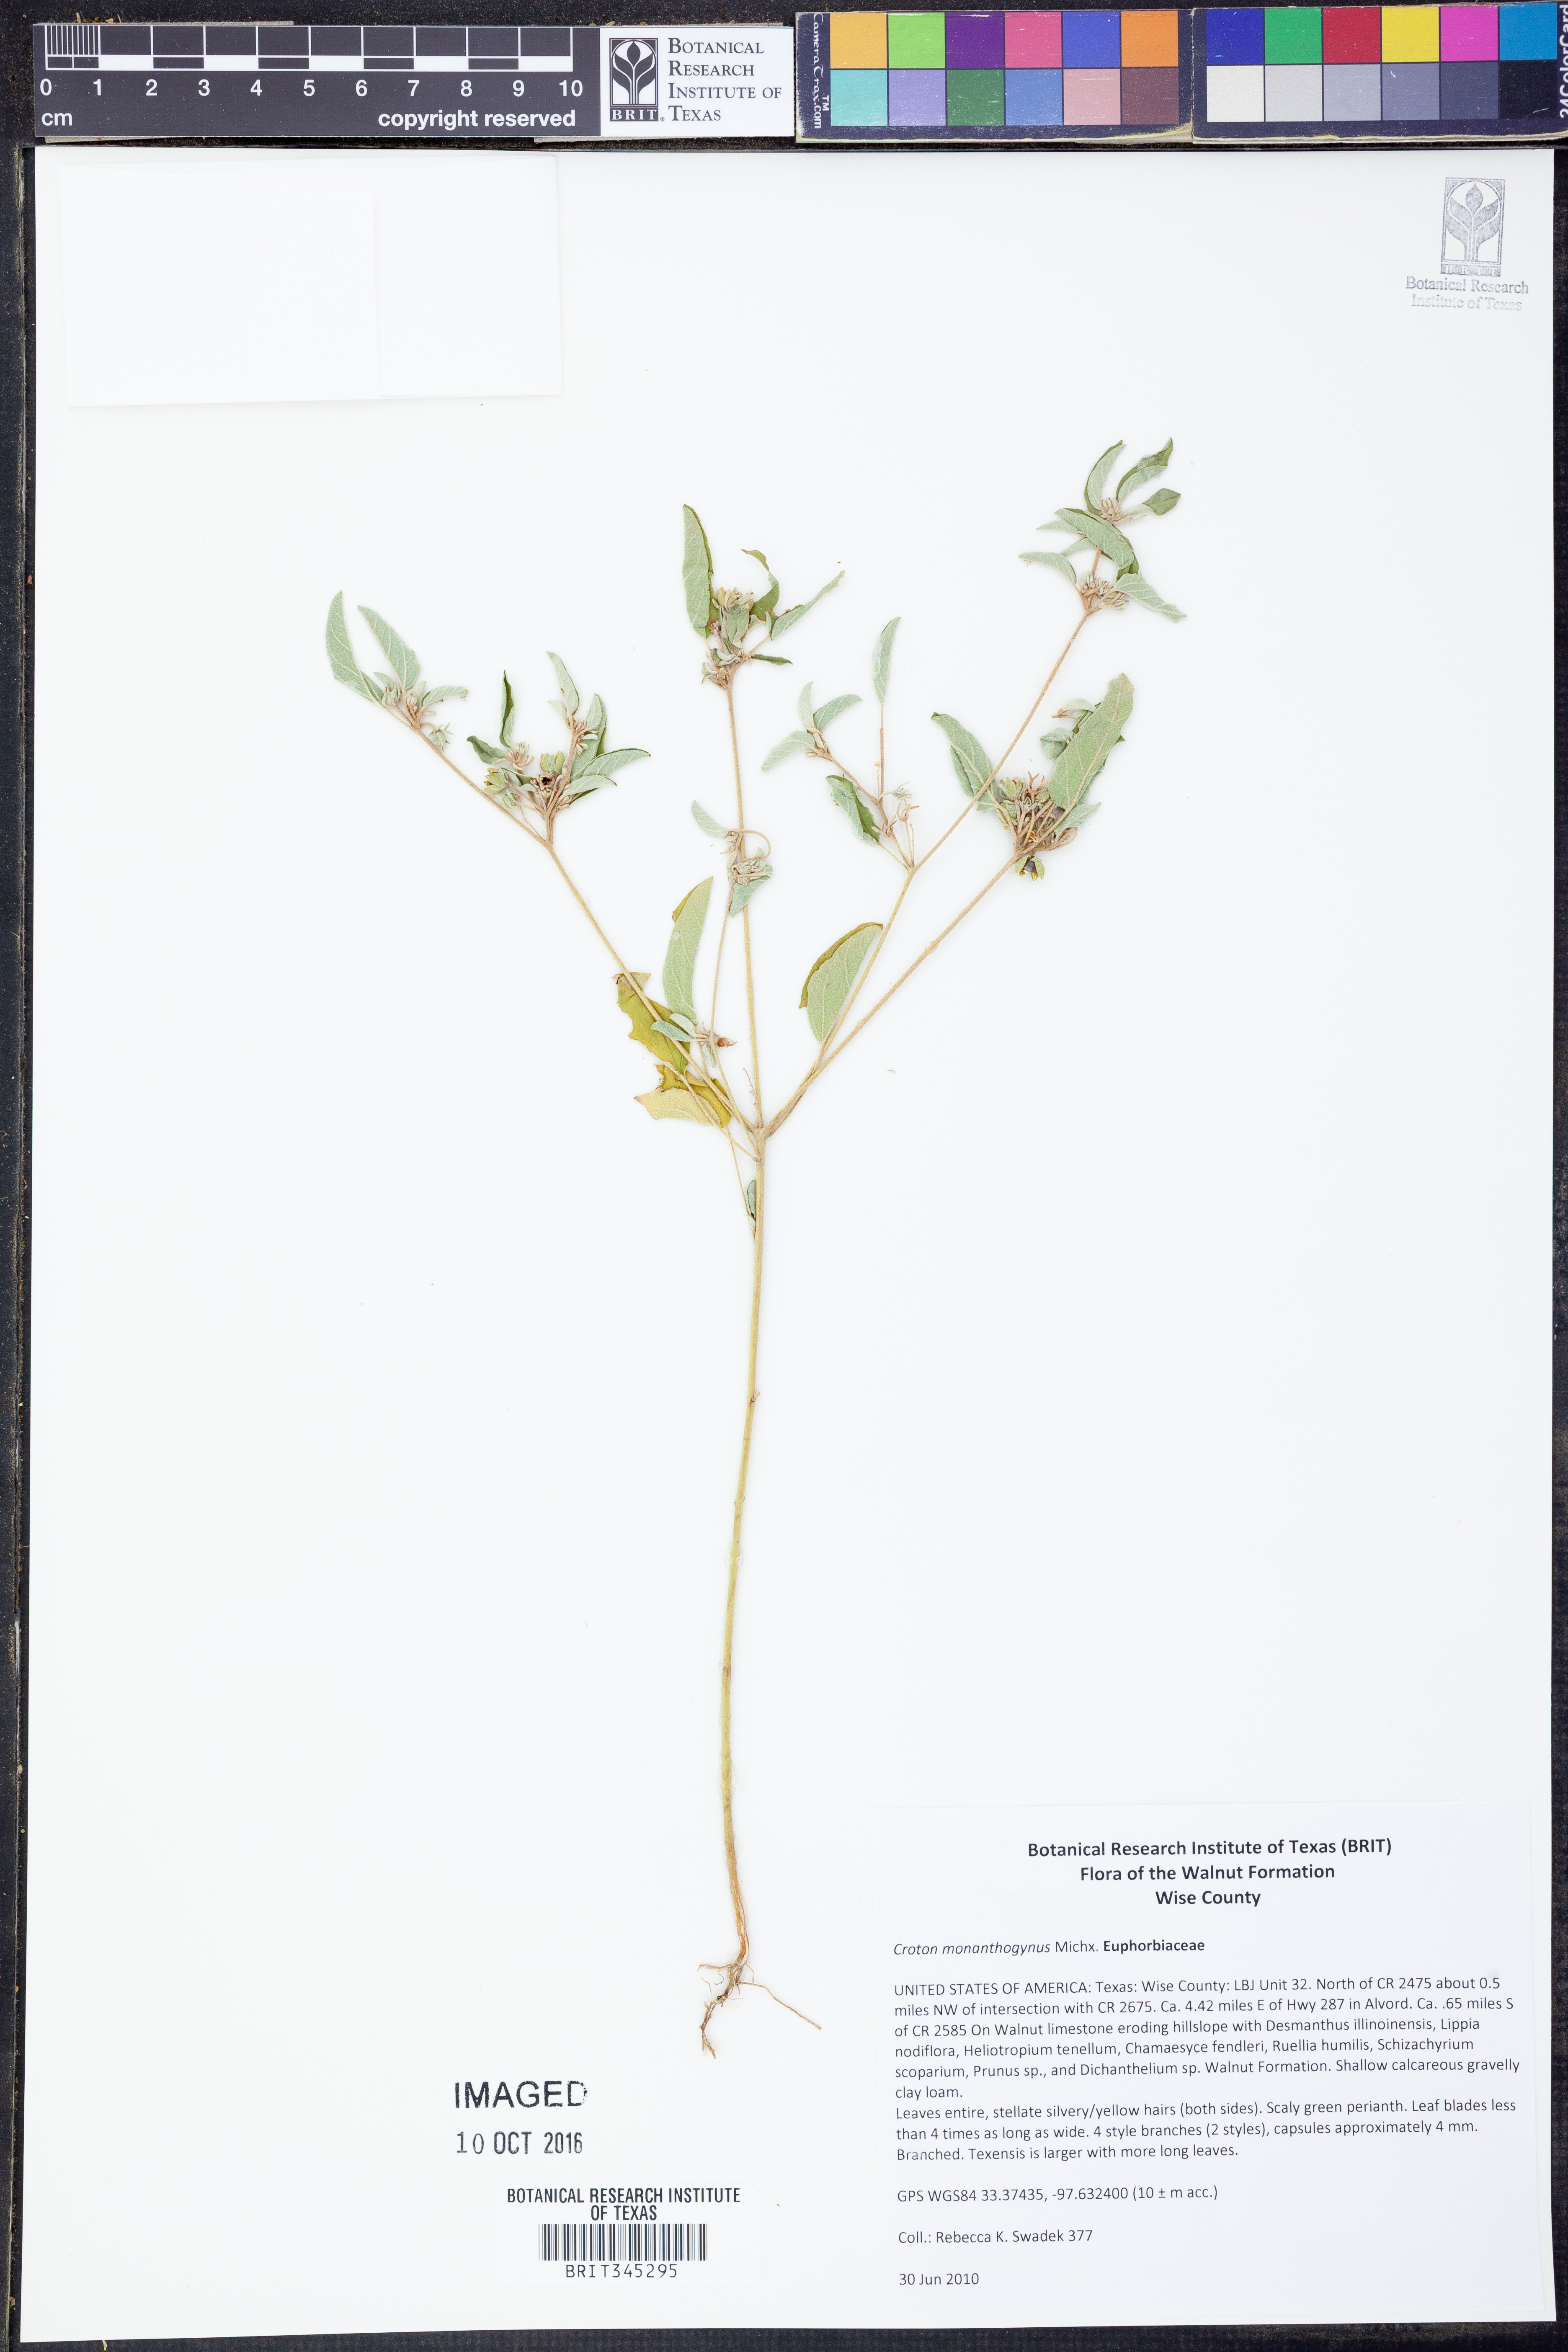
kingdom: Plantae
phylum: Tracheophyta
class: Magnoliopsida
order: Malpighiales
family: Euphorbiaceae
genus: Croton
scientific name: Croton monanthogynus
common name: One-seed croton
